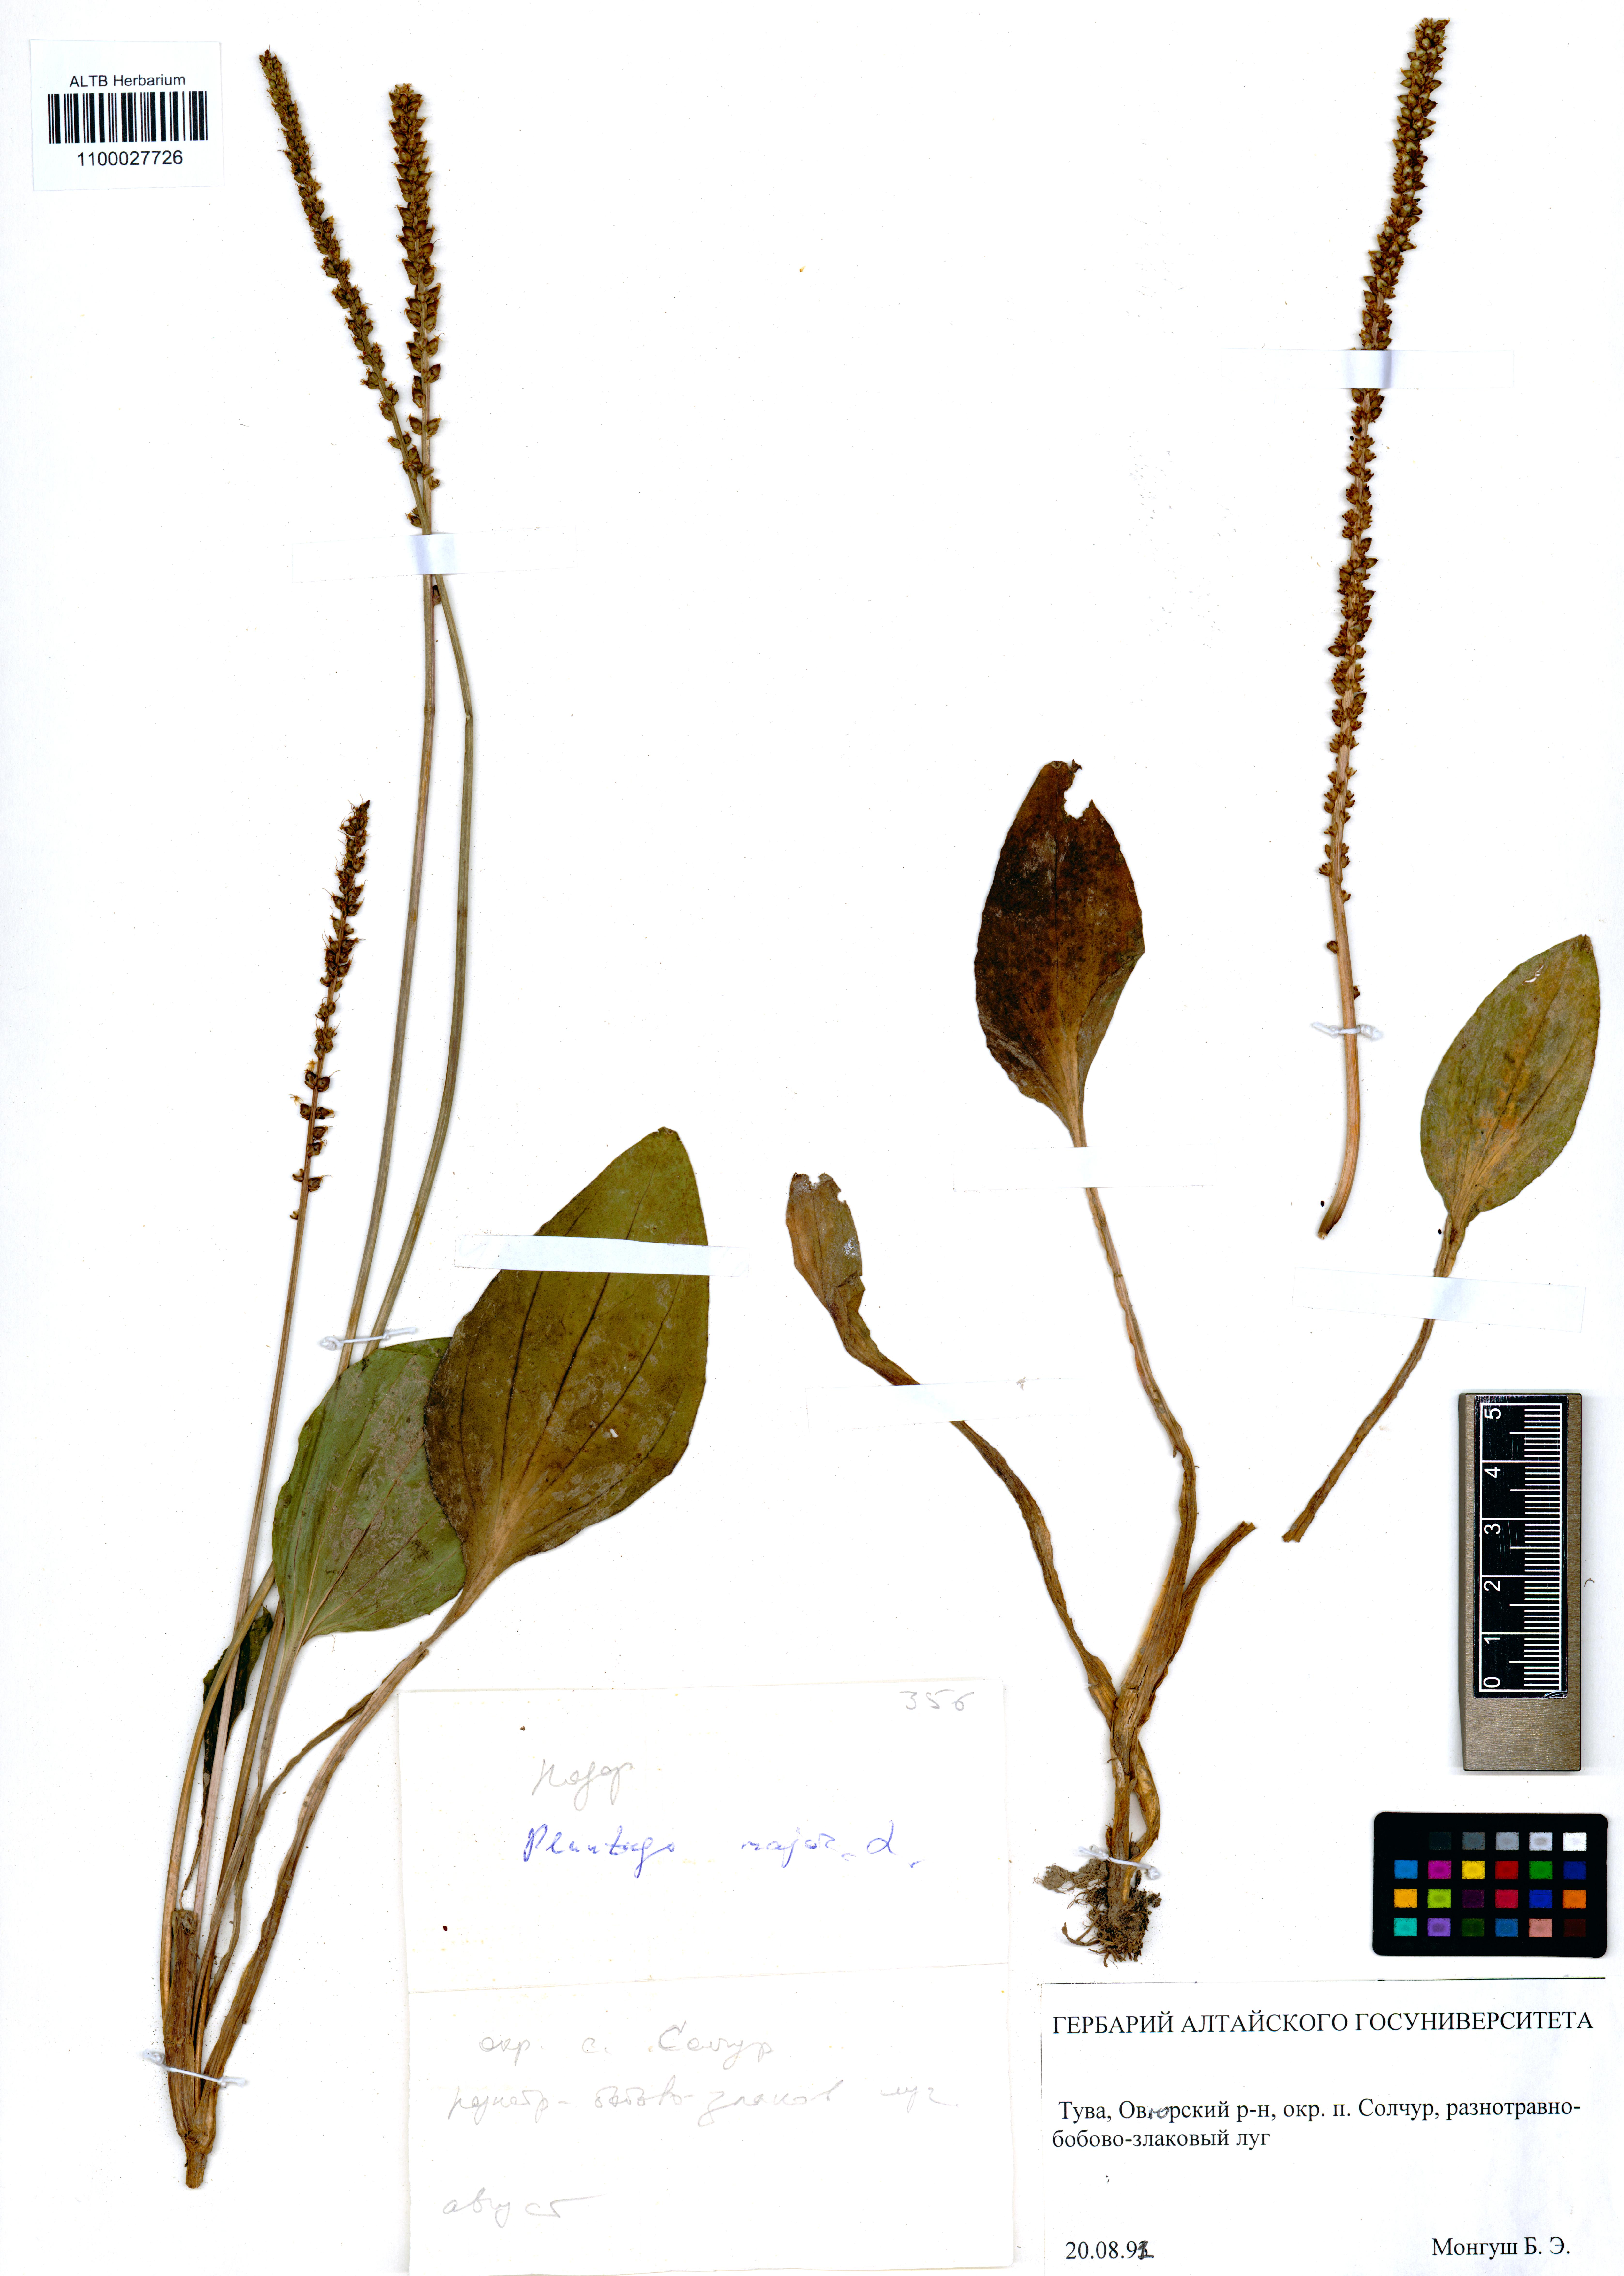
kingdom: Plantae
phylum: Tracheophyta
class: Magnoliopsida
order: Lamiales
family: Plantaginaceae
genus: Plantago
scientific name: Plantago major
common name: Common plantain
